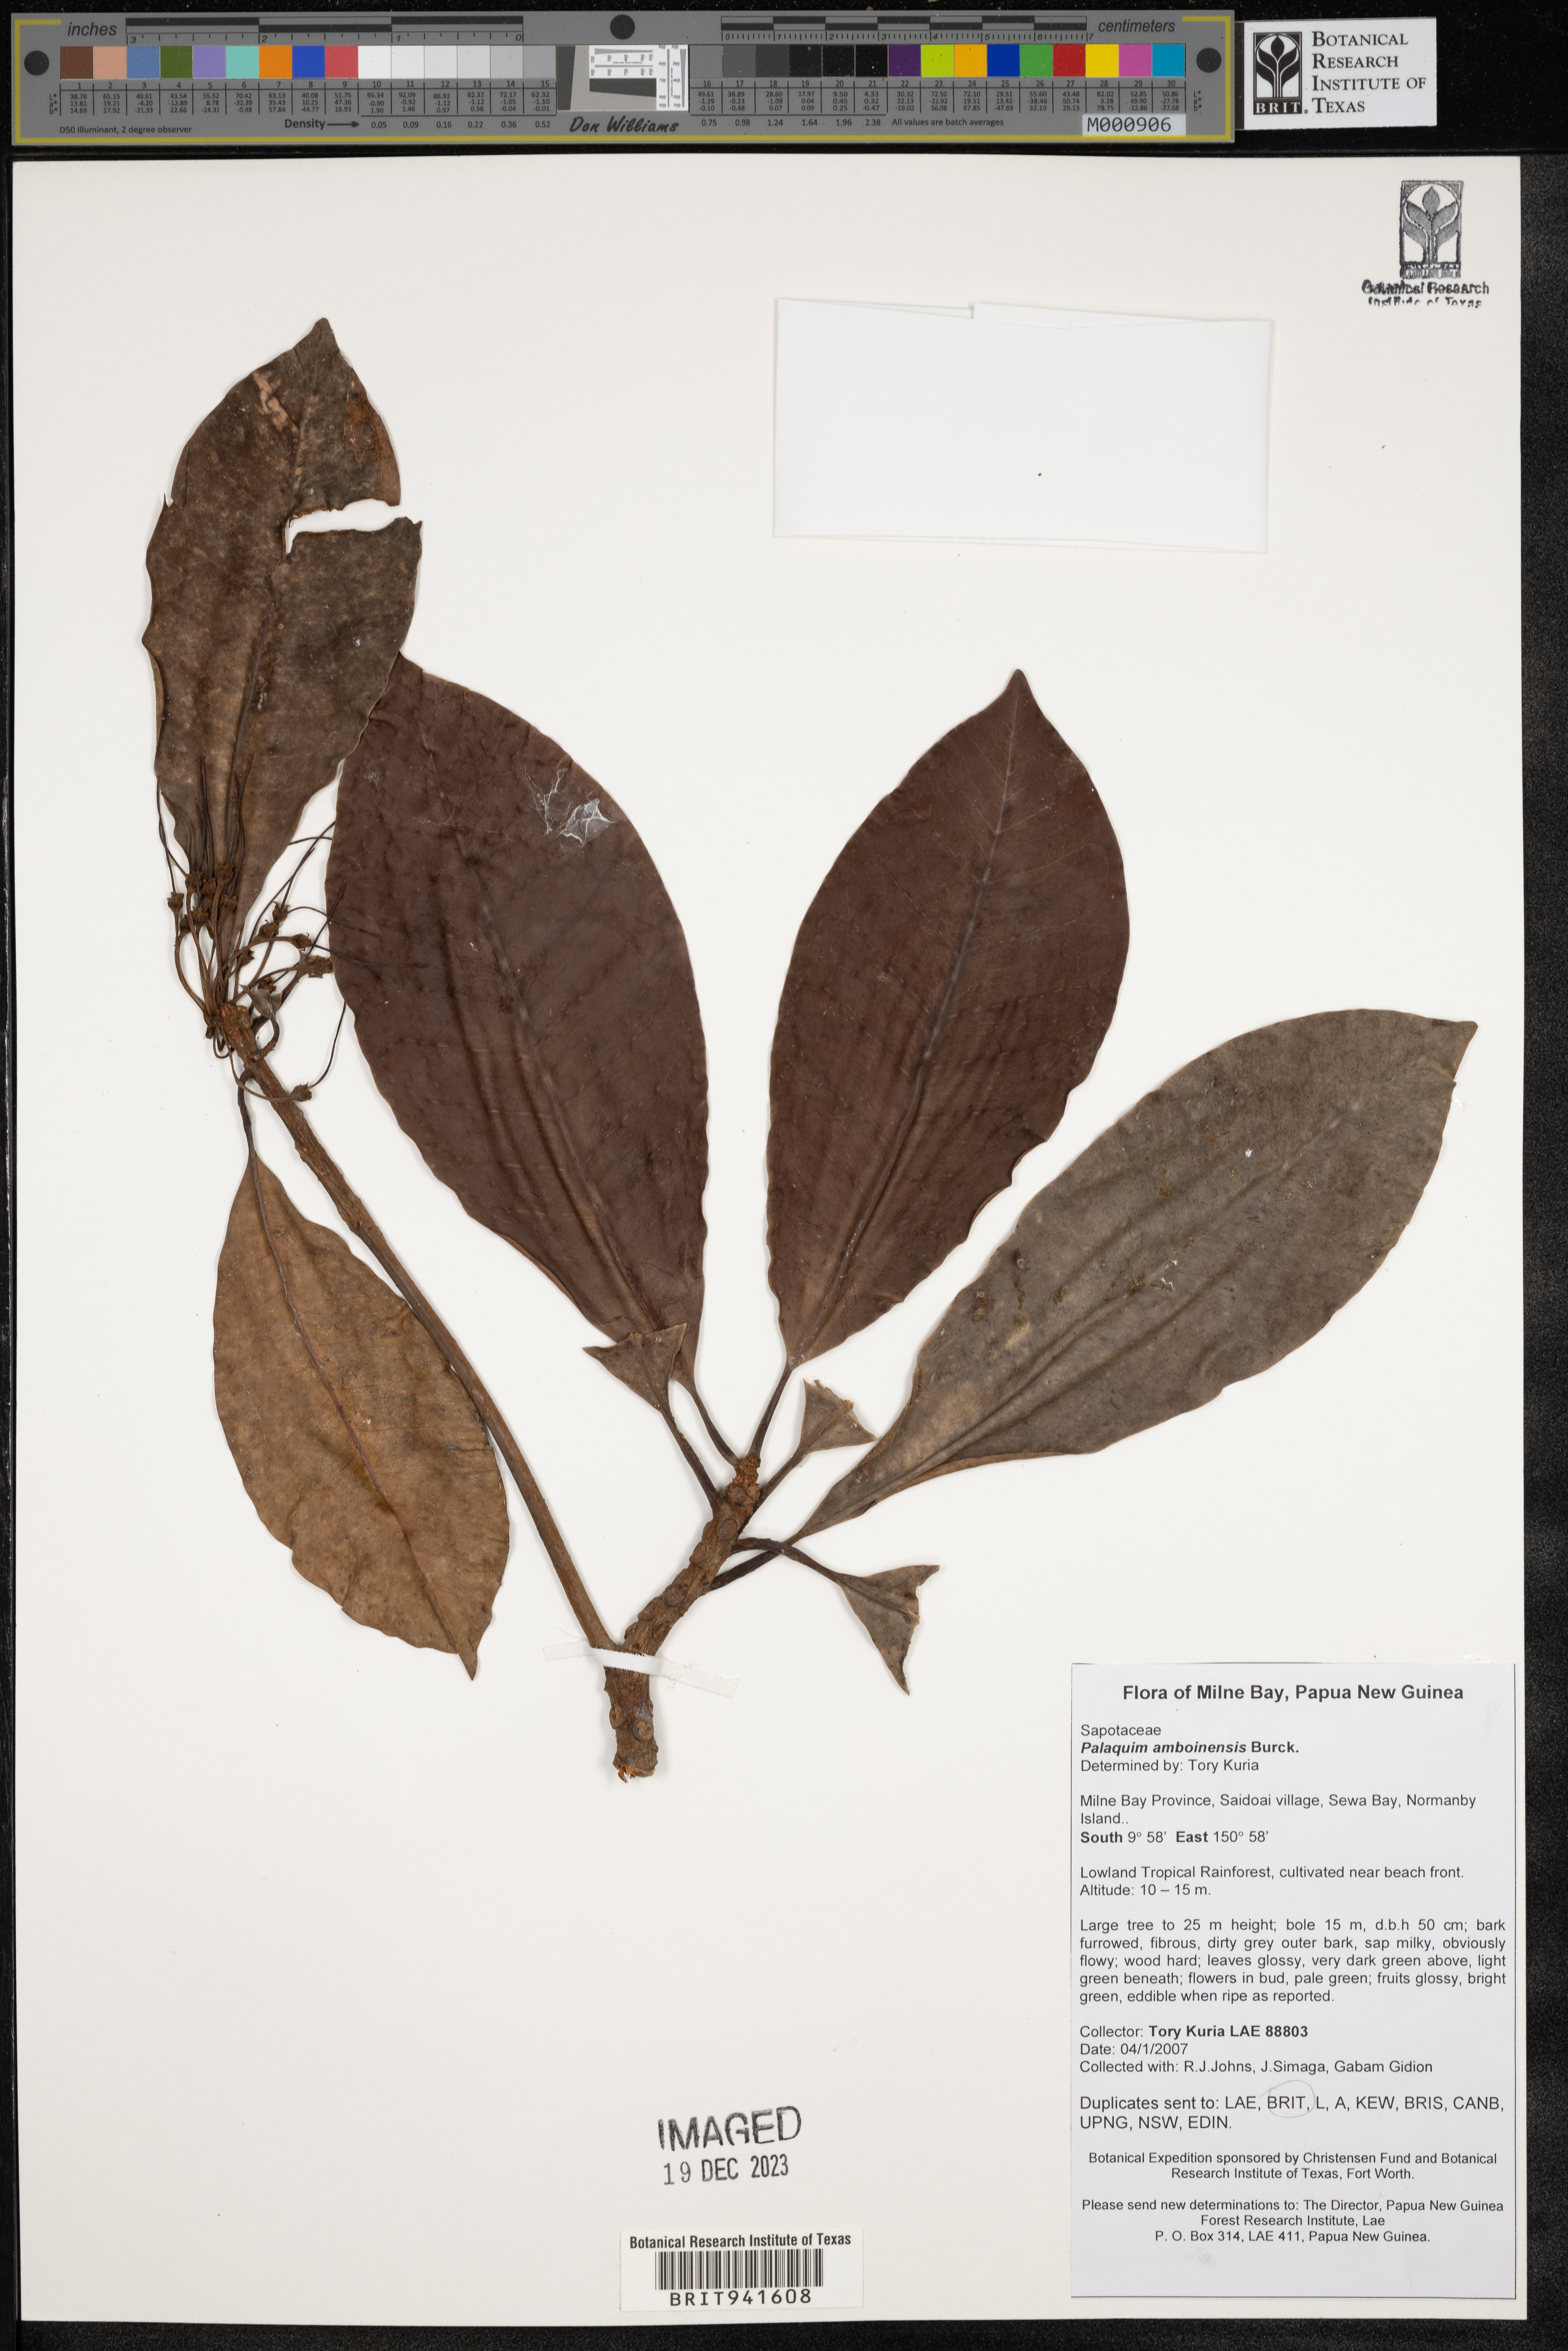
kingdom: Plantae
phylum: Tracheophyta
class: Magnoliopsida
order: Ericales
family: Sapotaceae
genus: Palaquium
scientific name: Palaquium
